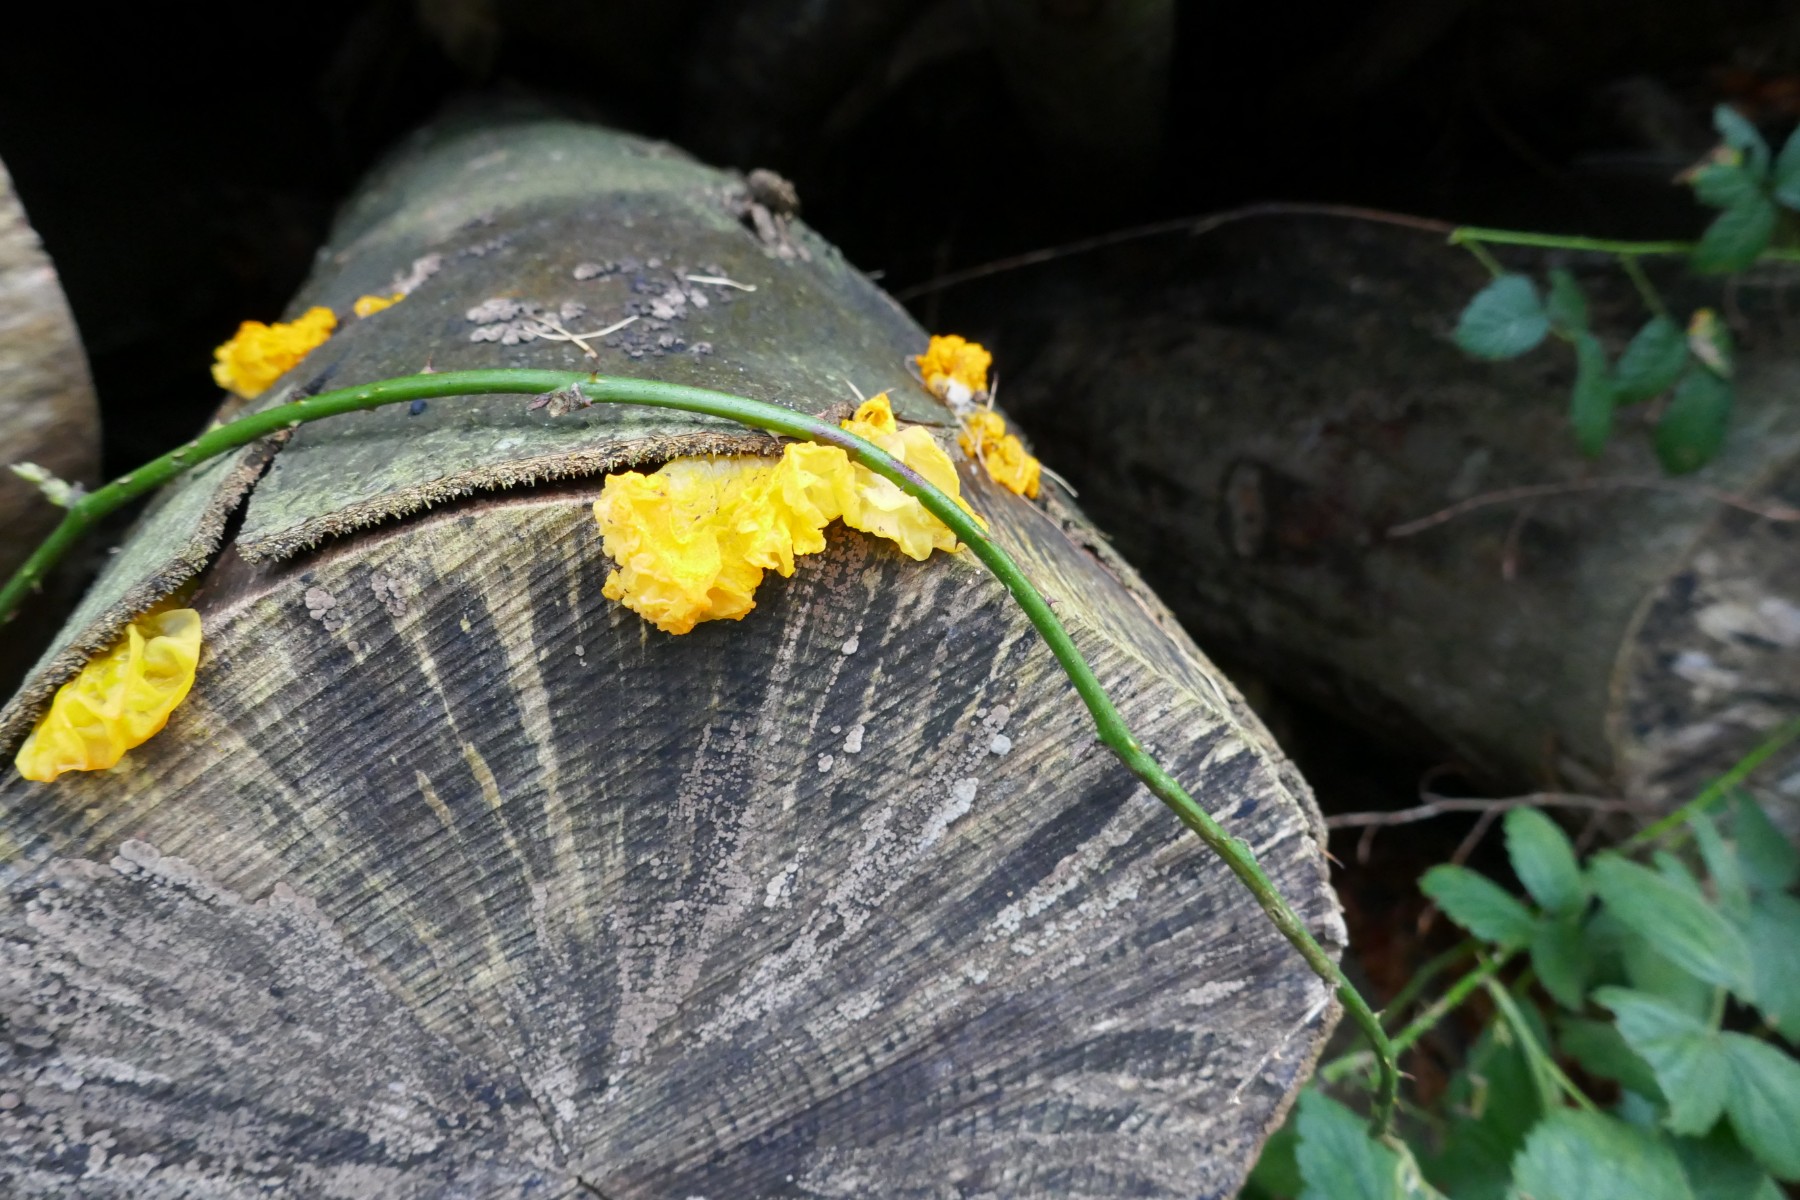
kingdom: Fungi
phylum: Basidiomycota
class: Tremellomycetes
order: Tremellales
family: Tremellaceae
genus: Tremella
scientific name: Tremella mesenterica
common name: gul bævresvamp
